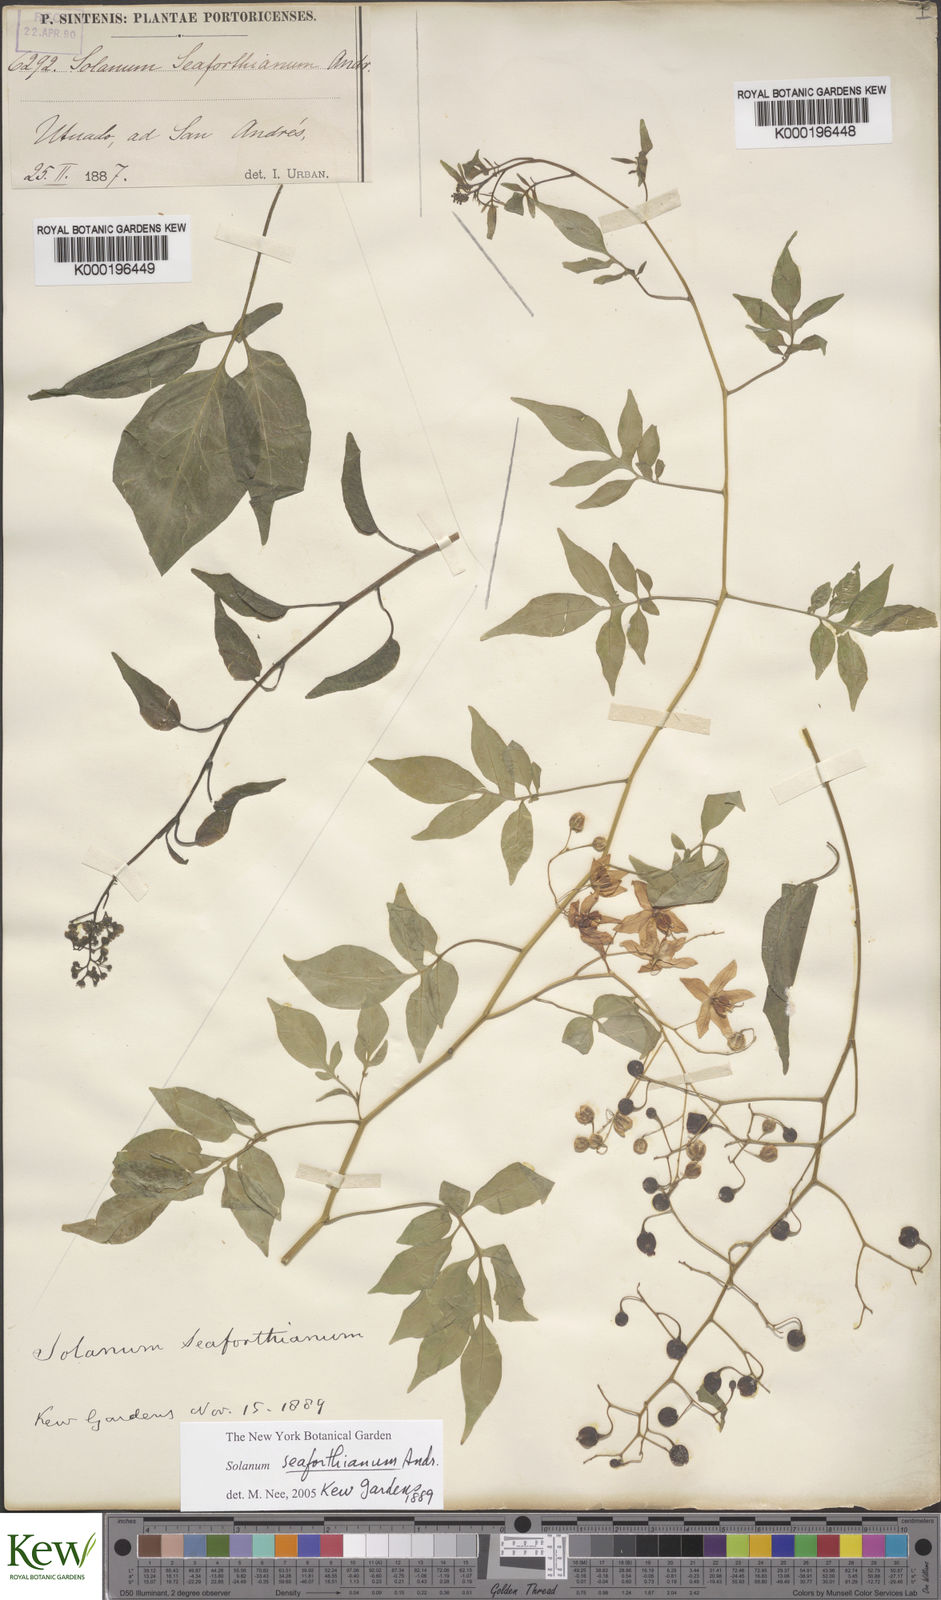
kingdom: Plantae
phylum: Tracheophyta
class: Magnoliopsida
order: Solanales
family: Solanaceae
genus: Solanum
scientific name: Solanum seaforthianum
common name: Brazilian nightshade
